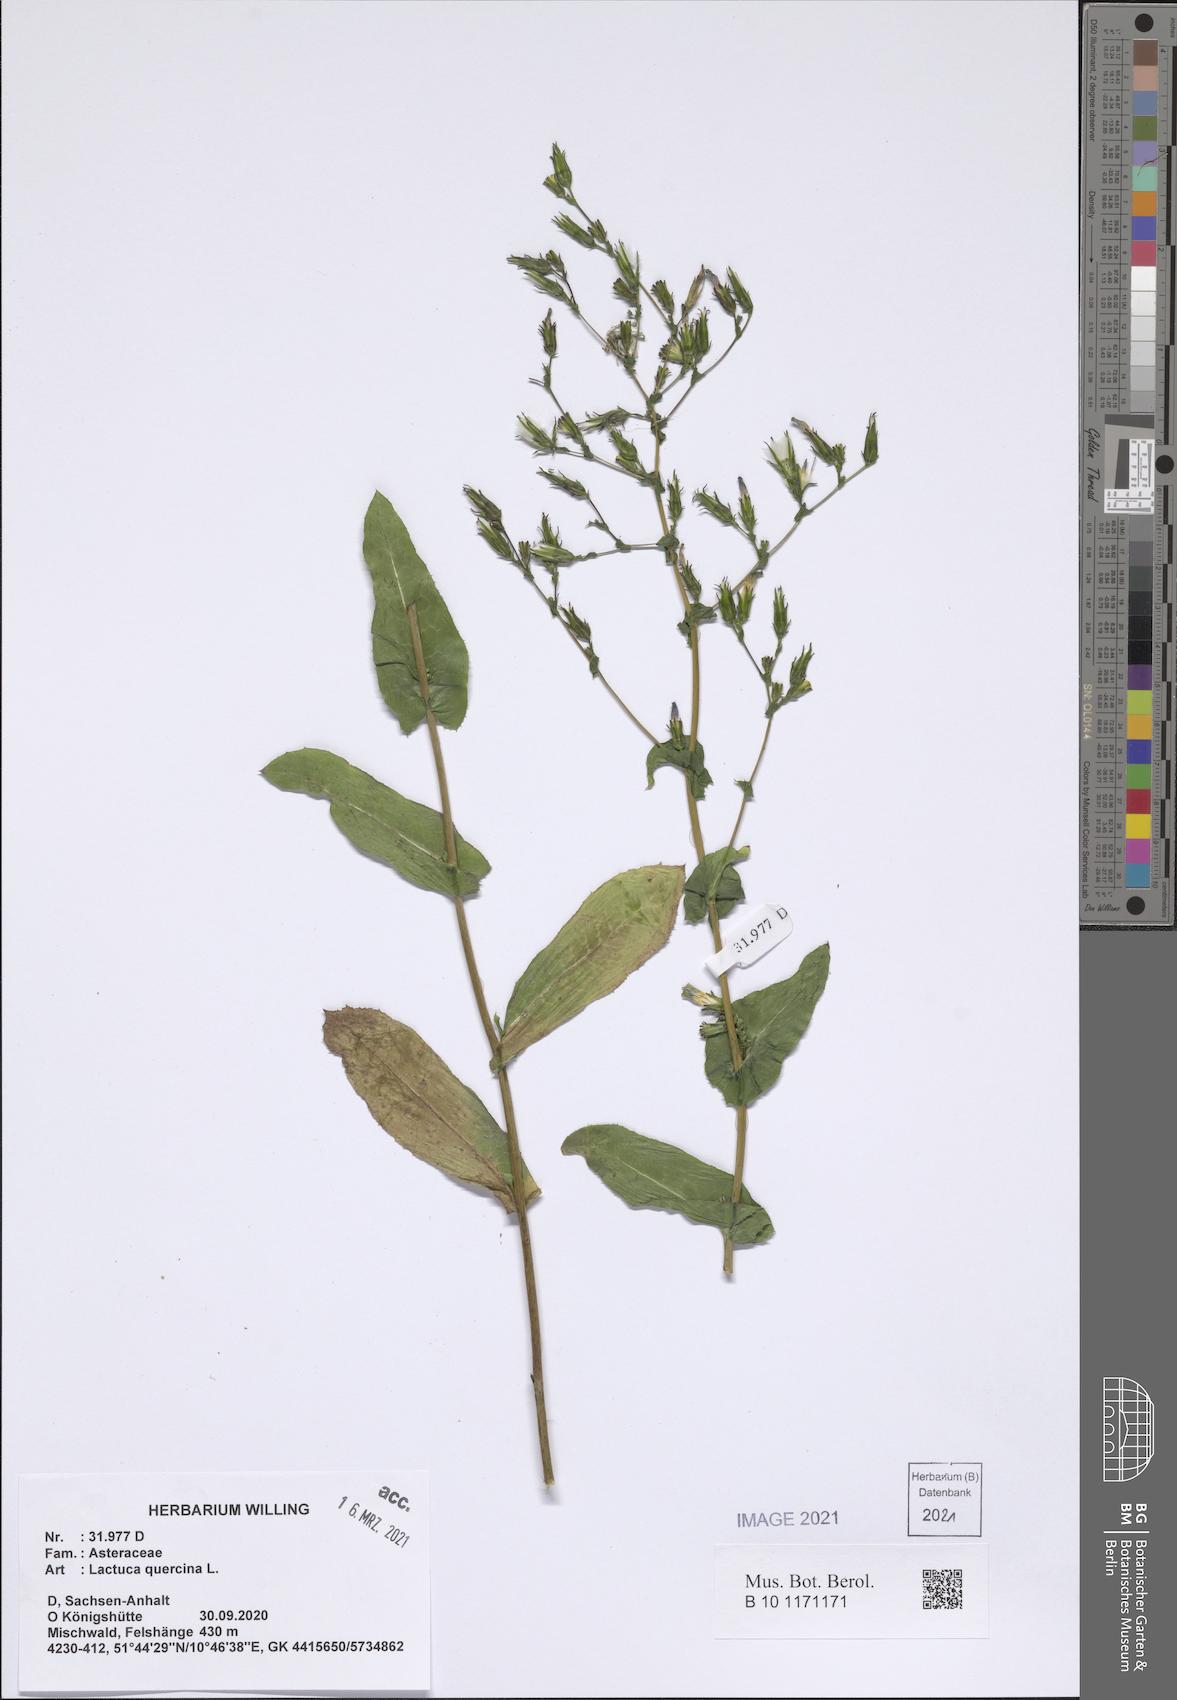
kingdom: Plantae
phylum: Tracheophyta
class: Magnoliopsida
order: Asterales
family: Asteraceae
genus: Lactuca
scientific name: Lactuca quercina
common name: Wild lettuce
